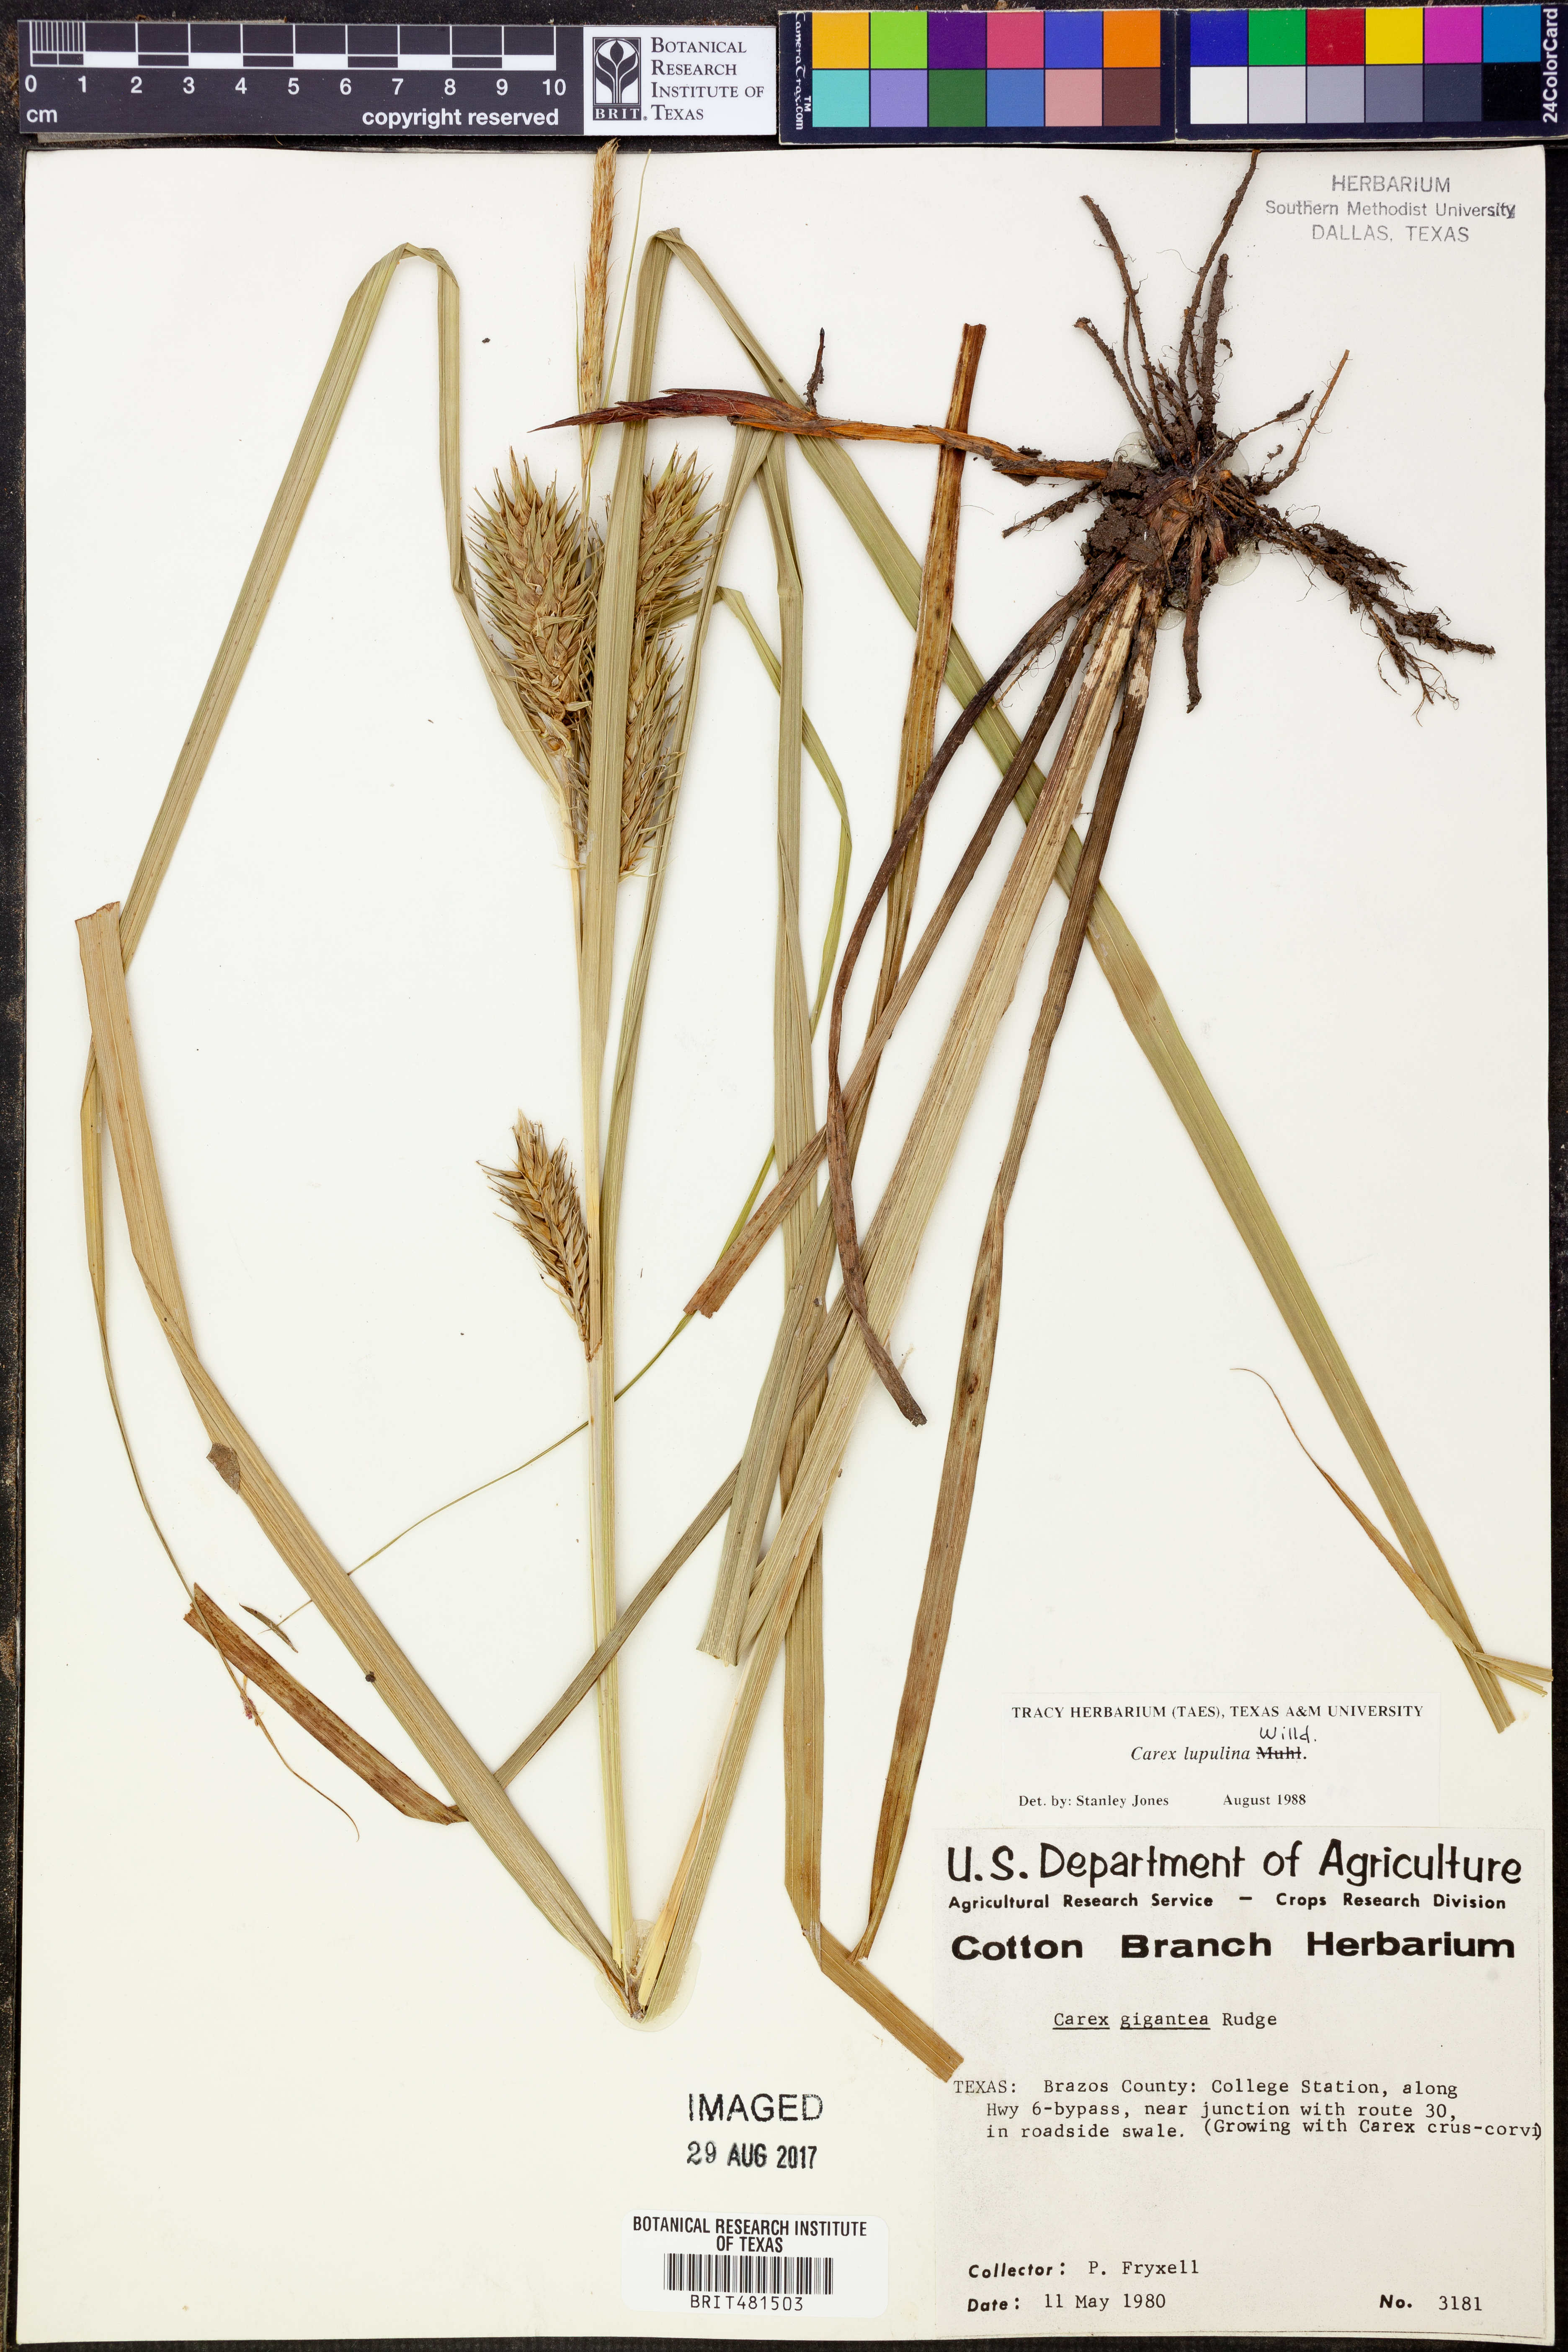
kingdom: Plantae
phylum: Tracheophyta
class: Liliopsida
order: Poales
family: Cyperaceae
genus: Carex
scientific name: Carex lupulina
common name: Hop sedge
